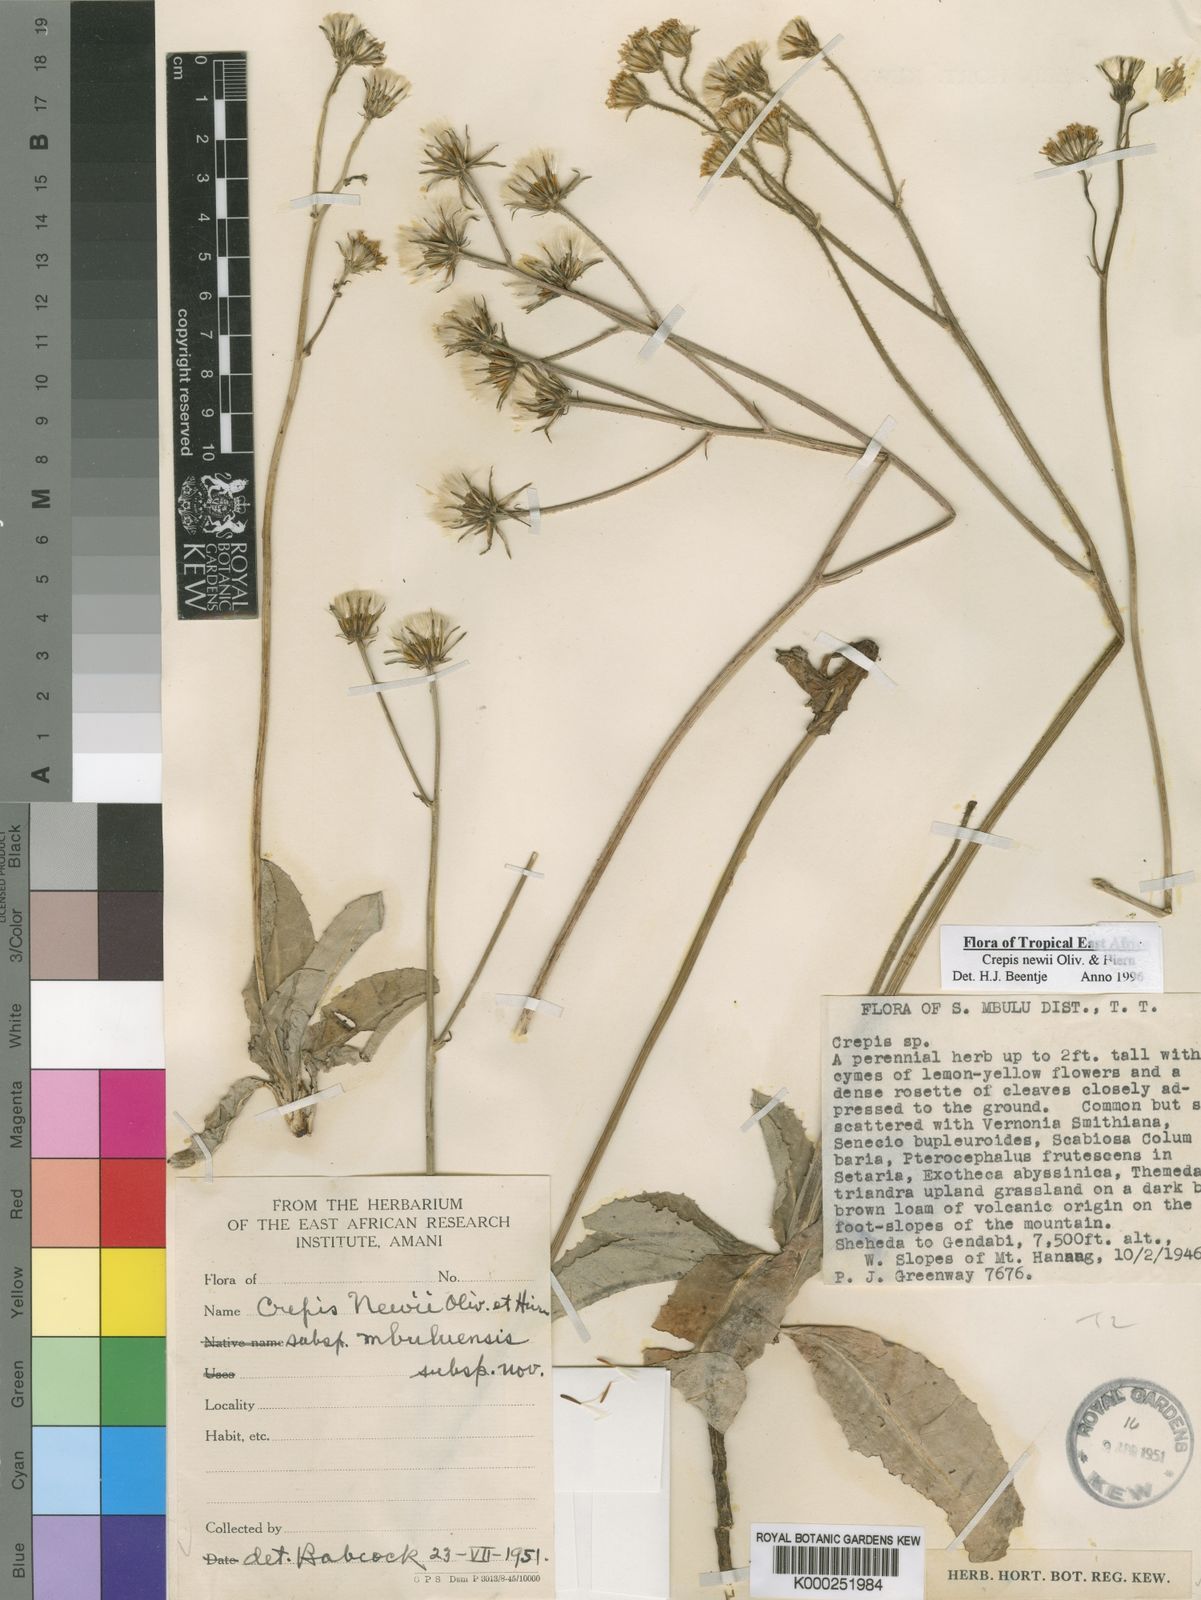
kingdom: Plantae
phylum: Tracheophyta
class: Magnoliopsida
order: Asterales
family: Asteraceae
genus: Crepis
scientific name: Crepis
